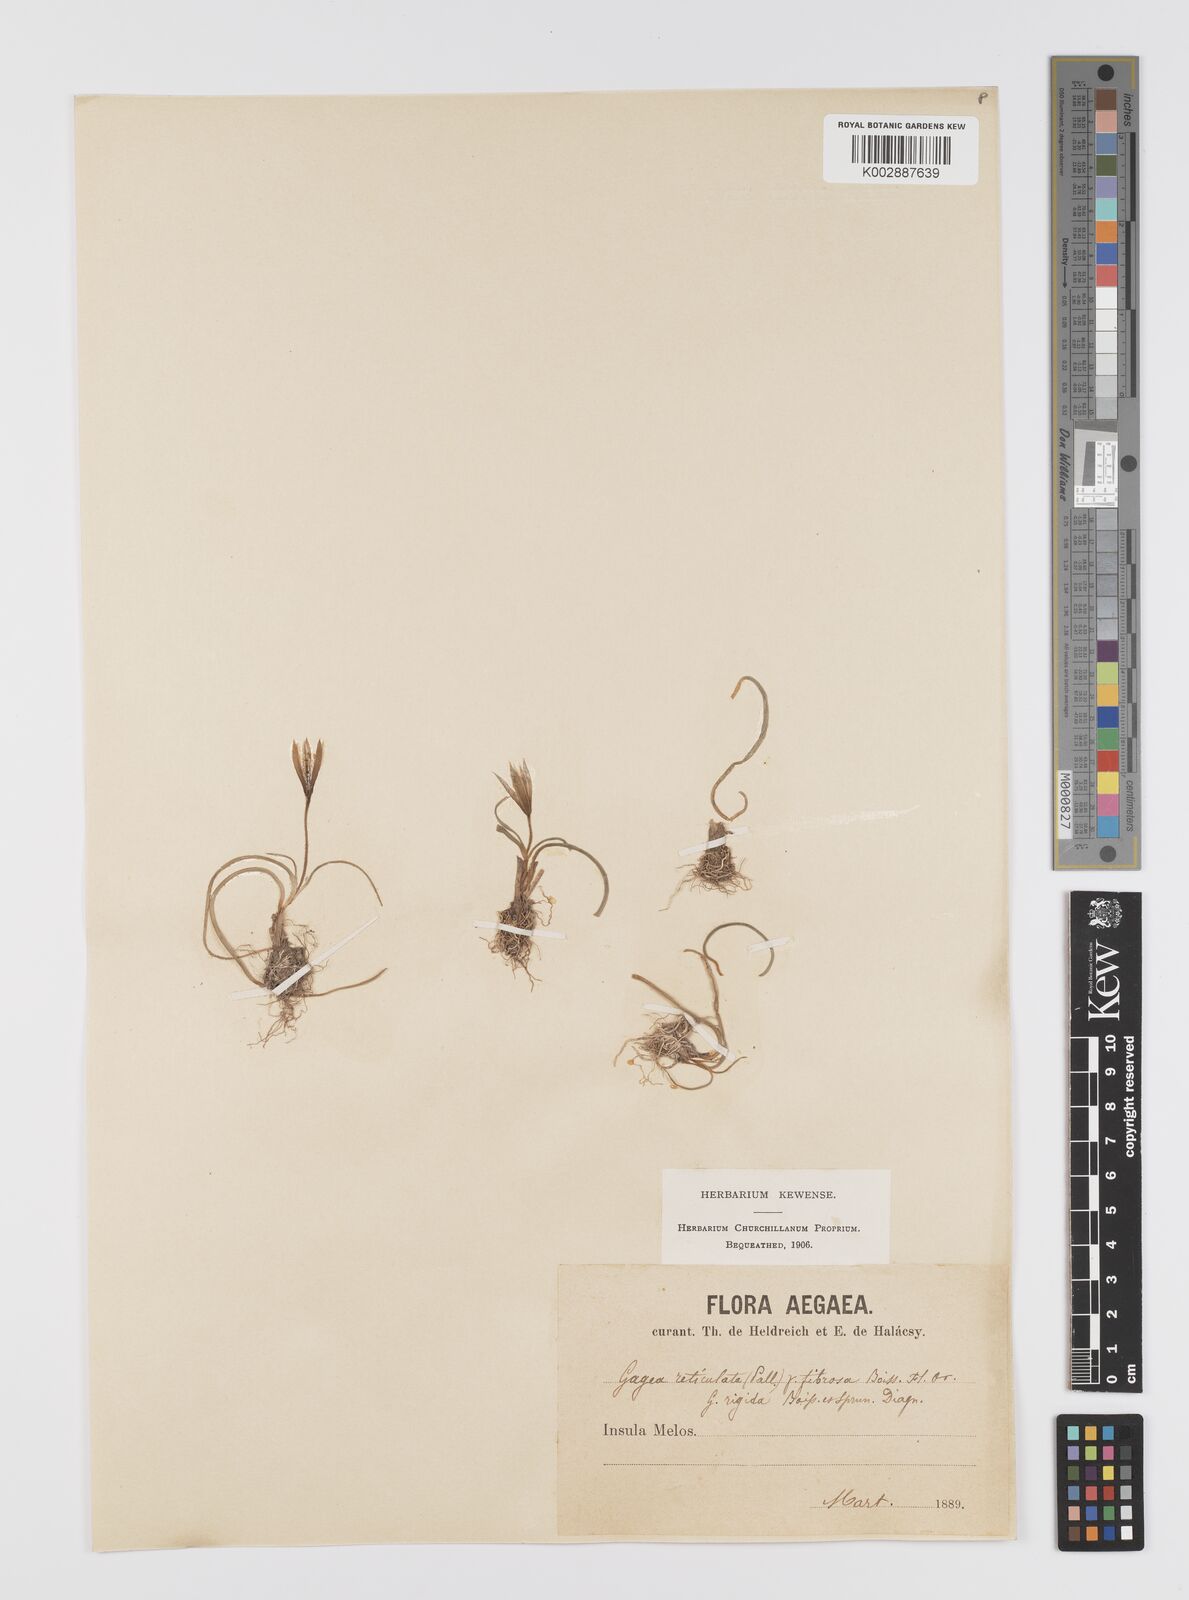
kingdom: Plantae
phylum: Tracheophyta
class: Liliopsida
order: Liliales
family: Liliaceae
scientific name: Liliaceae
